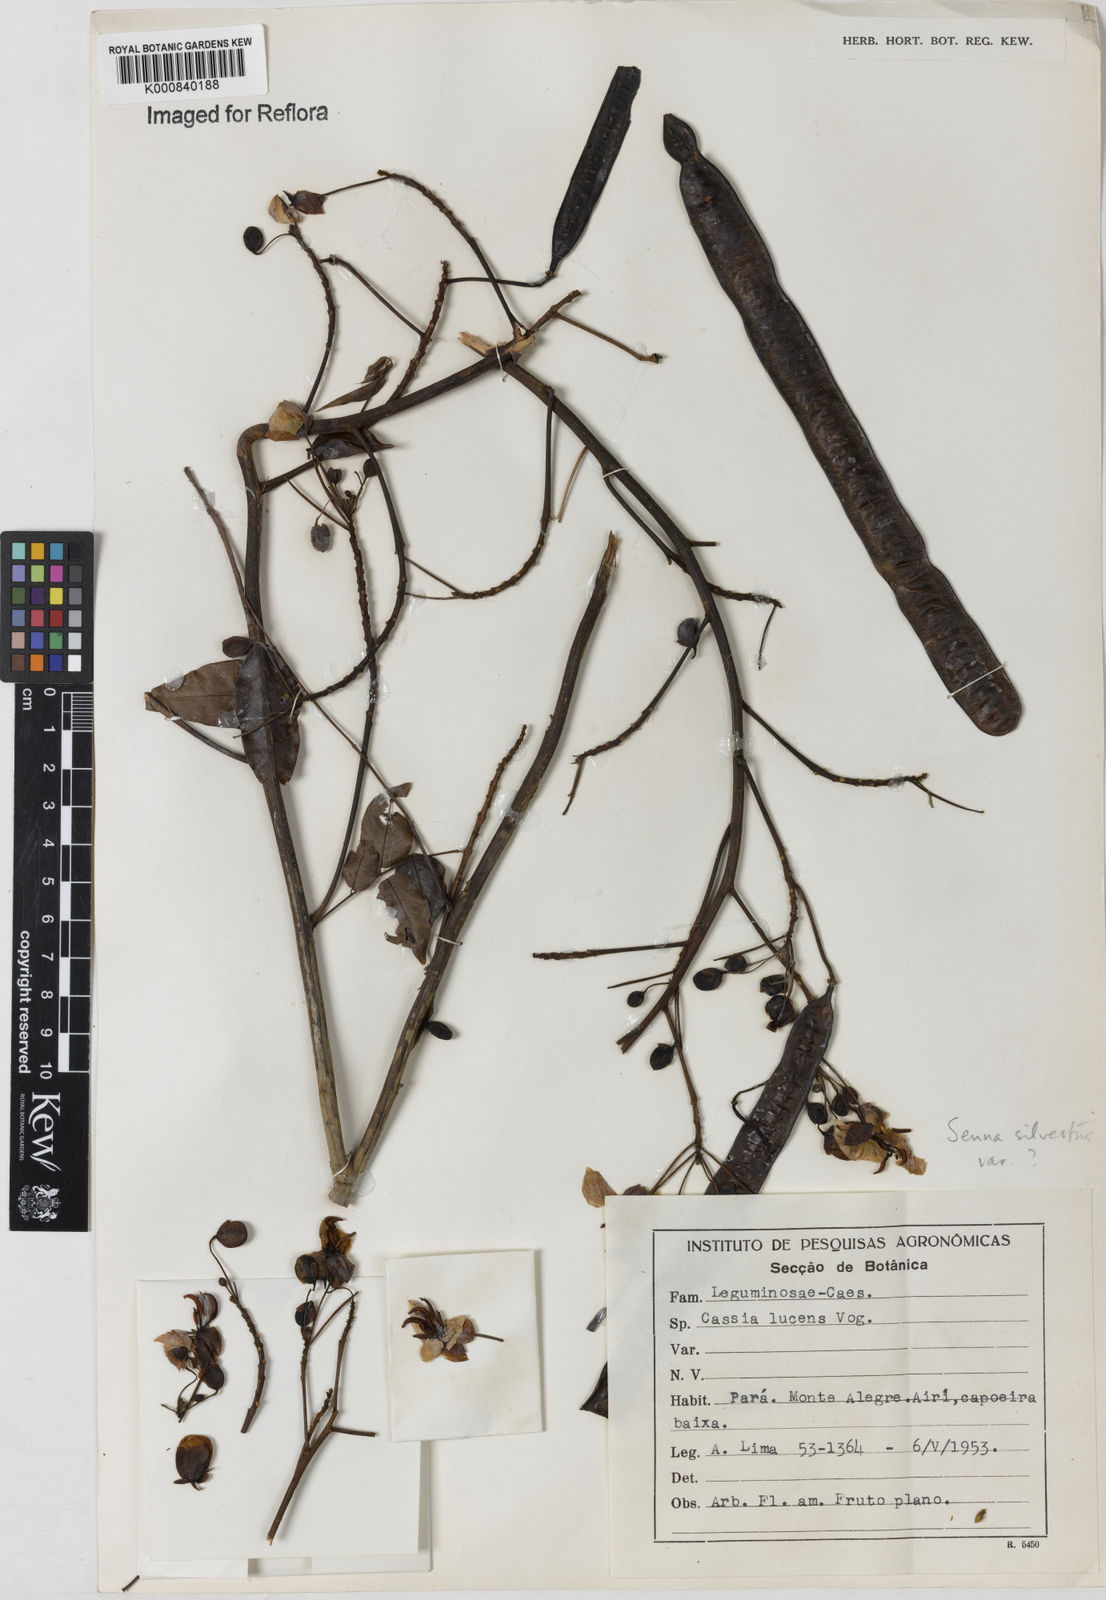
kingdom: Plantae
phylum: Tracheophyta
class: Magnoliopsida
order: Fabales
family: Fabaceae
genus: Senna
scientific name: Senna silvestris
